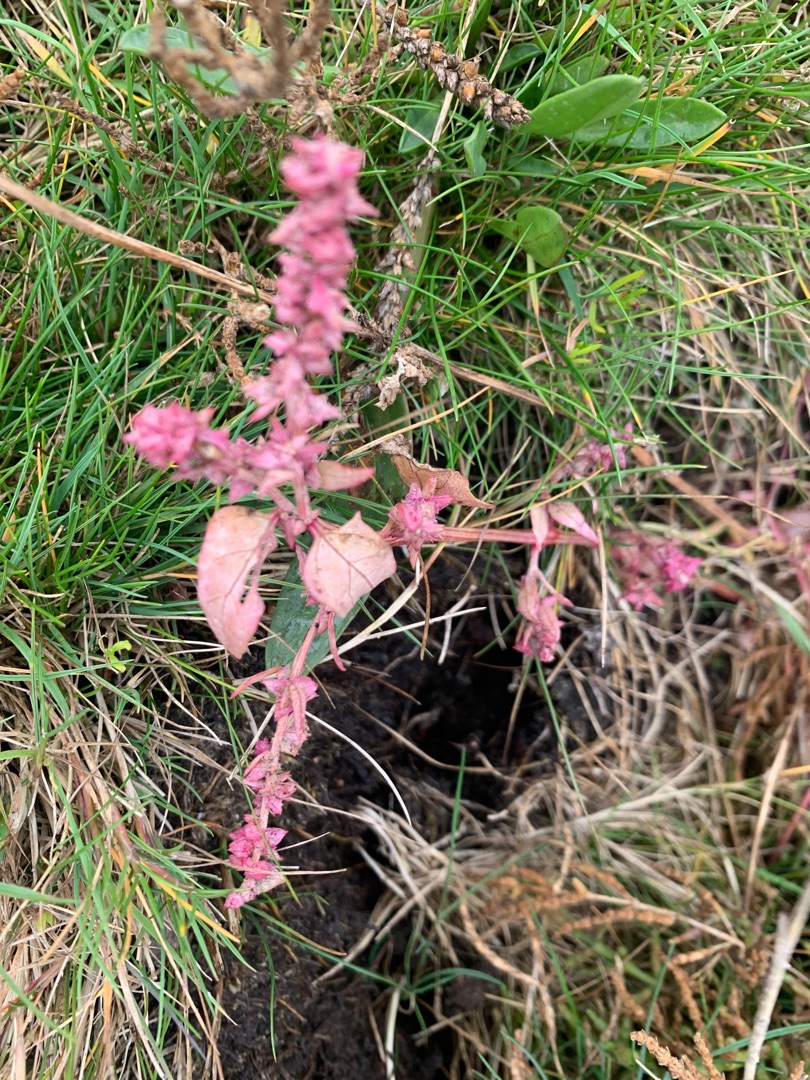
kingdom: Plantae
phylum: Tracheophyta
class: Magnoliopsida
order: Caryophyllales
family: Amaranthaceae
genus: Atriplex
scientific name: Atriplex prostrata
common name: Spyd-mælde
